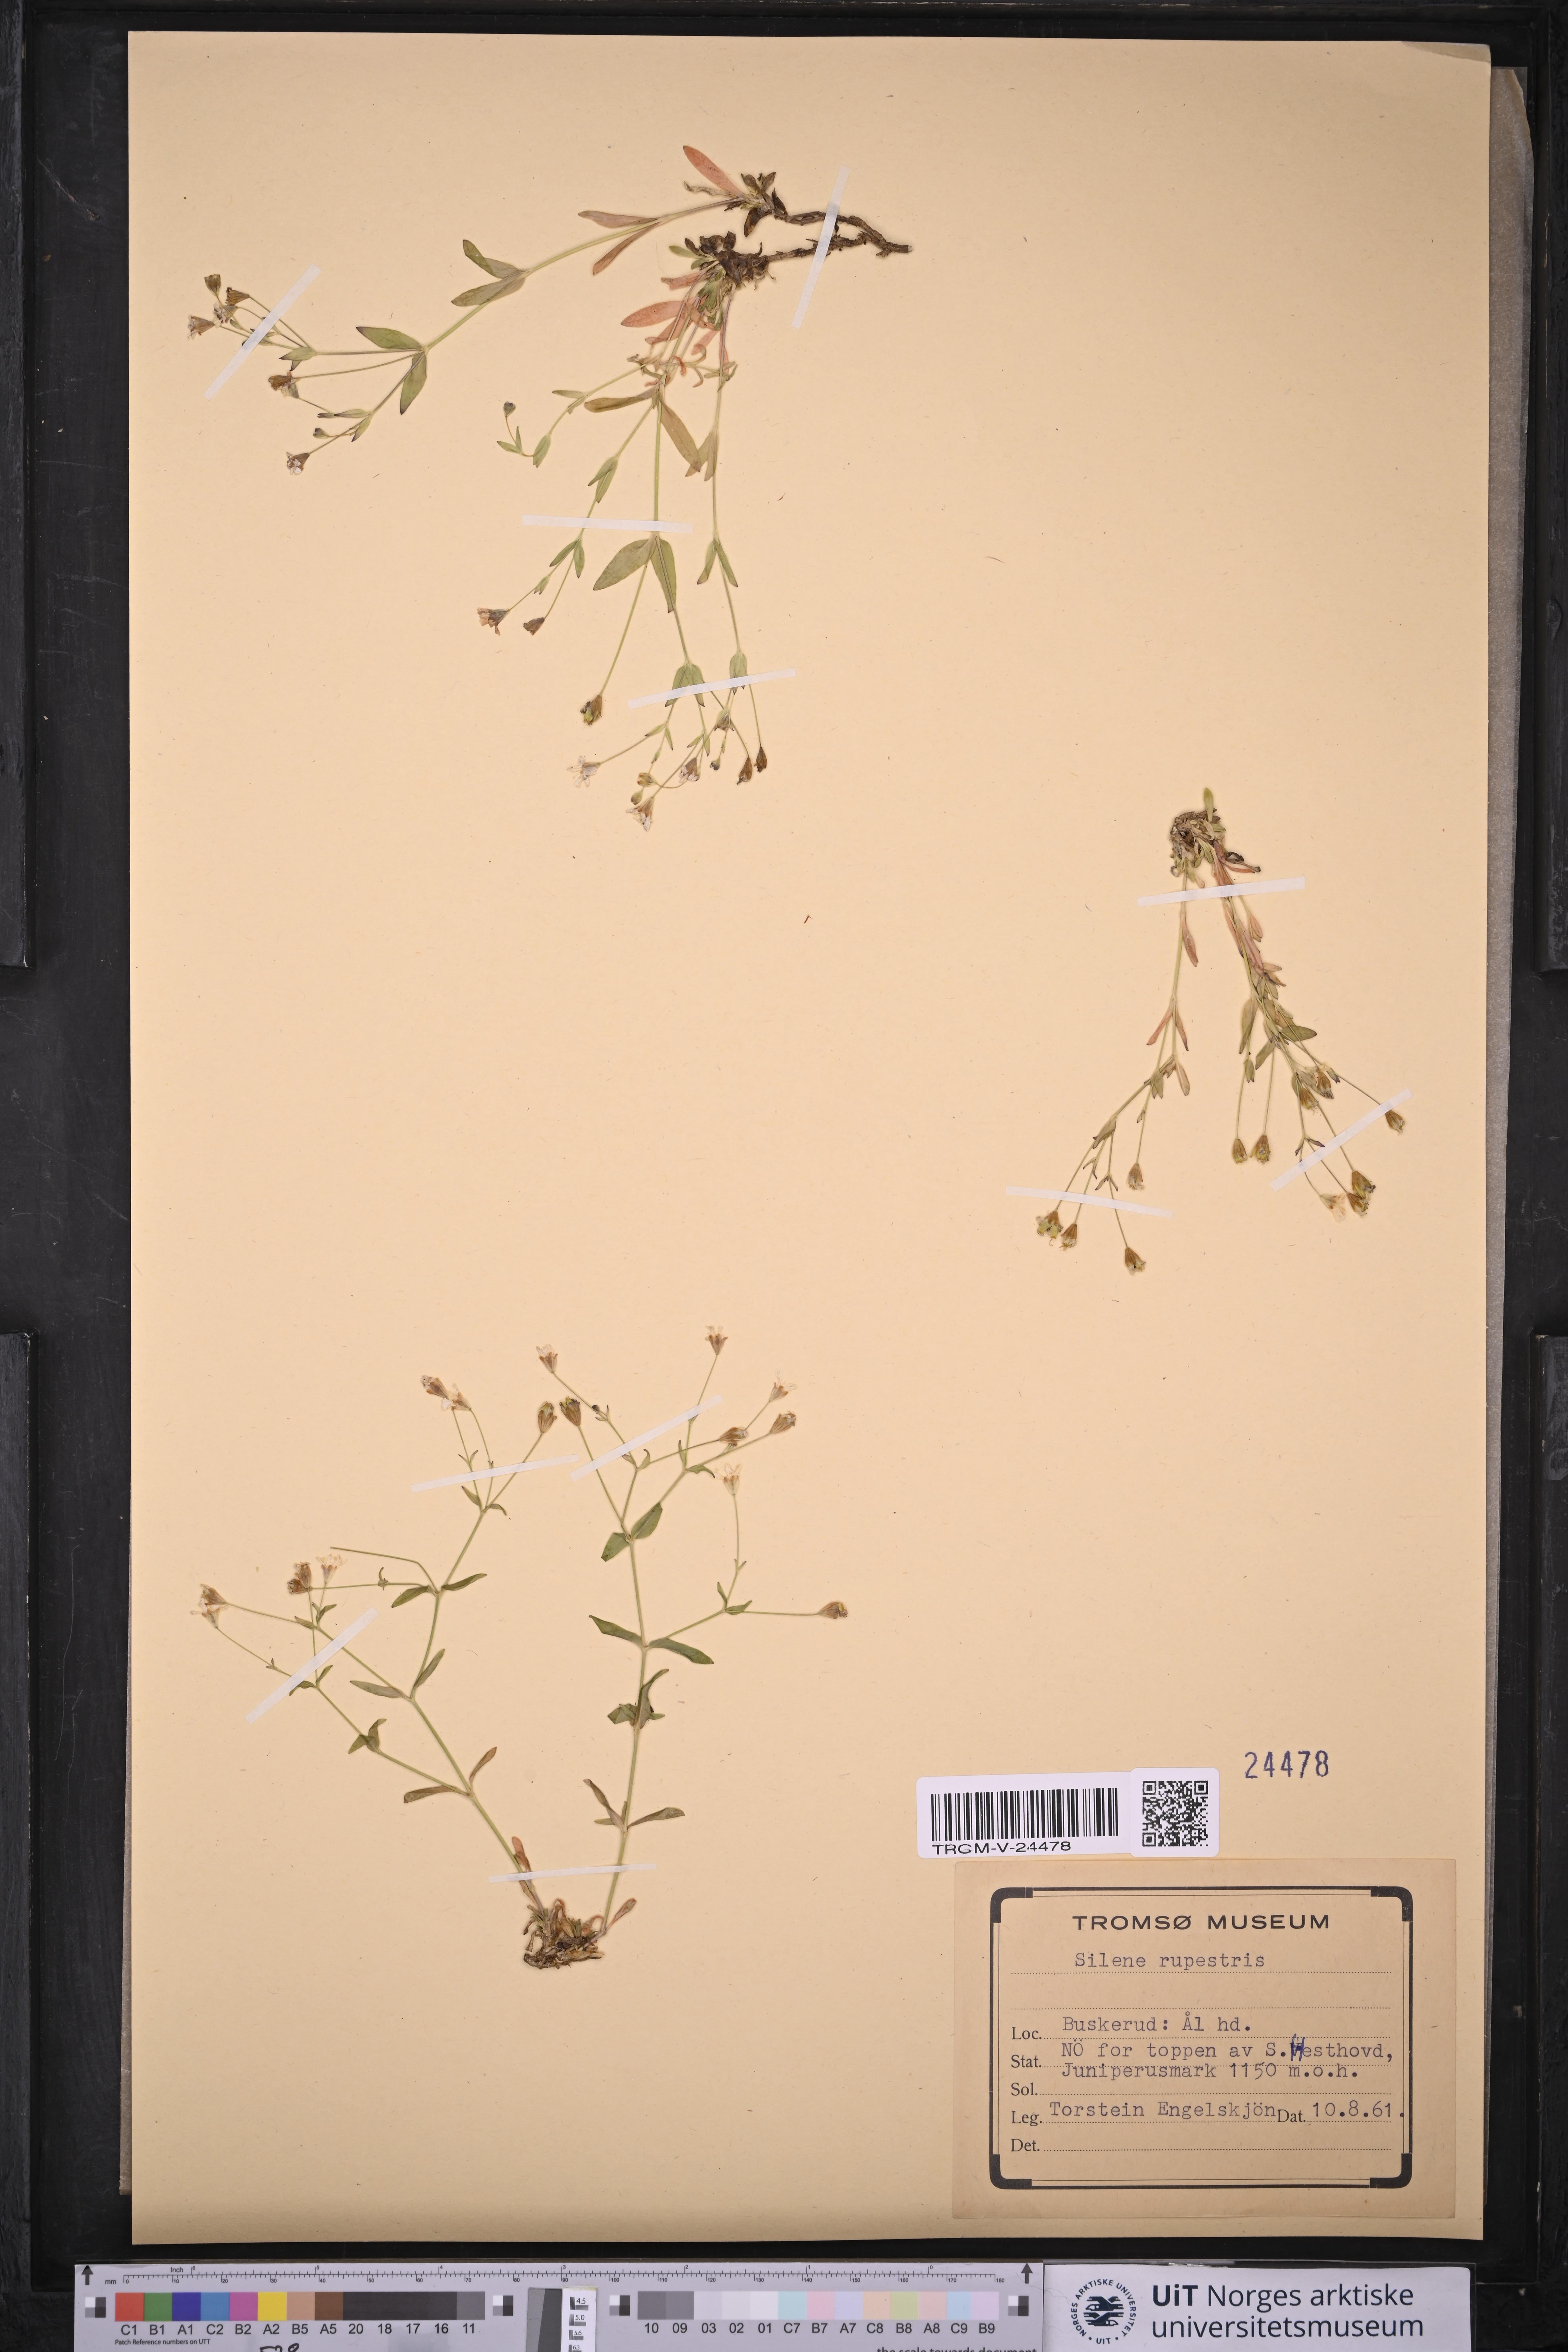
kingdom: Plantae
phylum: Tracheophyta
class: Magnoliopsida
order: Caryophyllales
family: Caryophyllaceae
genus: Atocion
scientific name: Atocion rupestre
